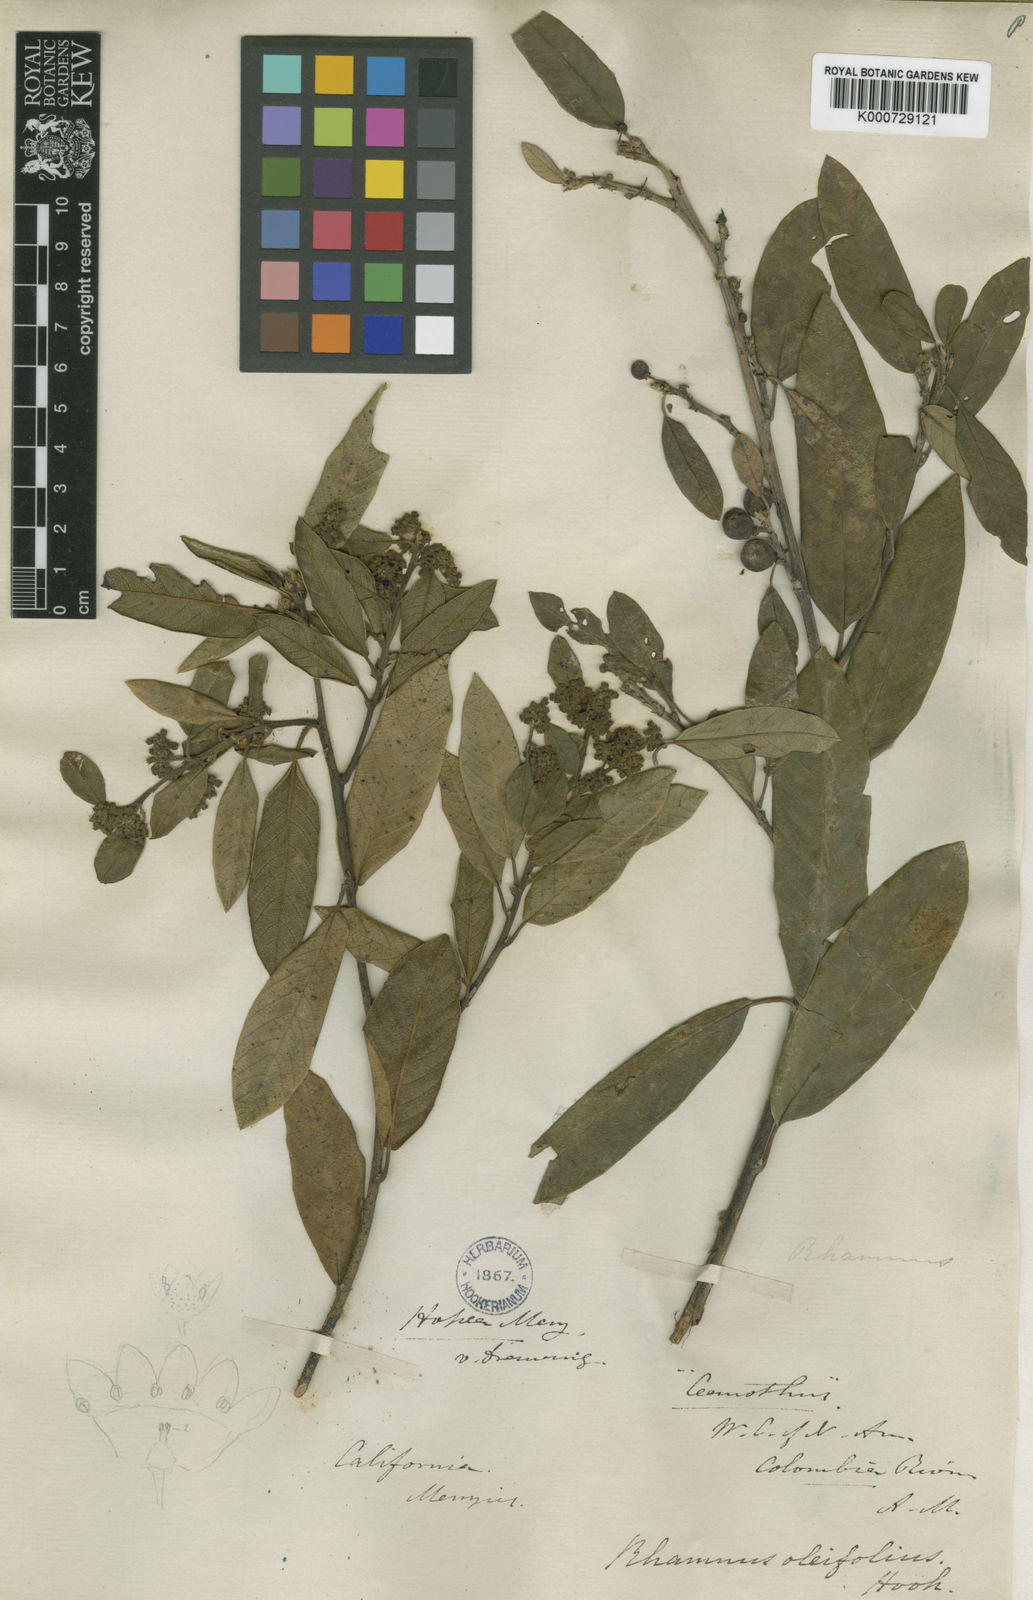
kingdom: Plantae
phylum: Tracheophyta
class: Magnoliopsida
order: Rosales
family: Rhamnaceae
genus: Frangula
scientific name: Frangula rubra
